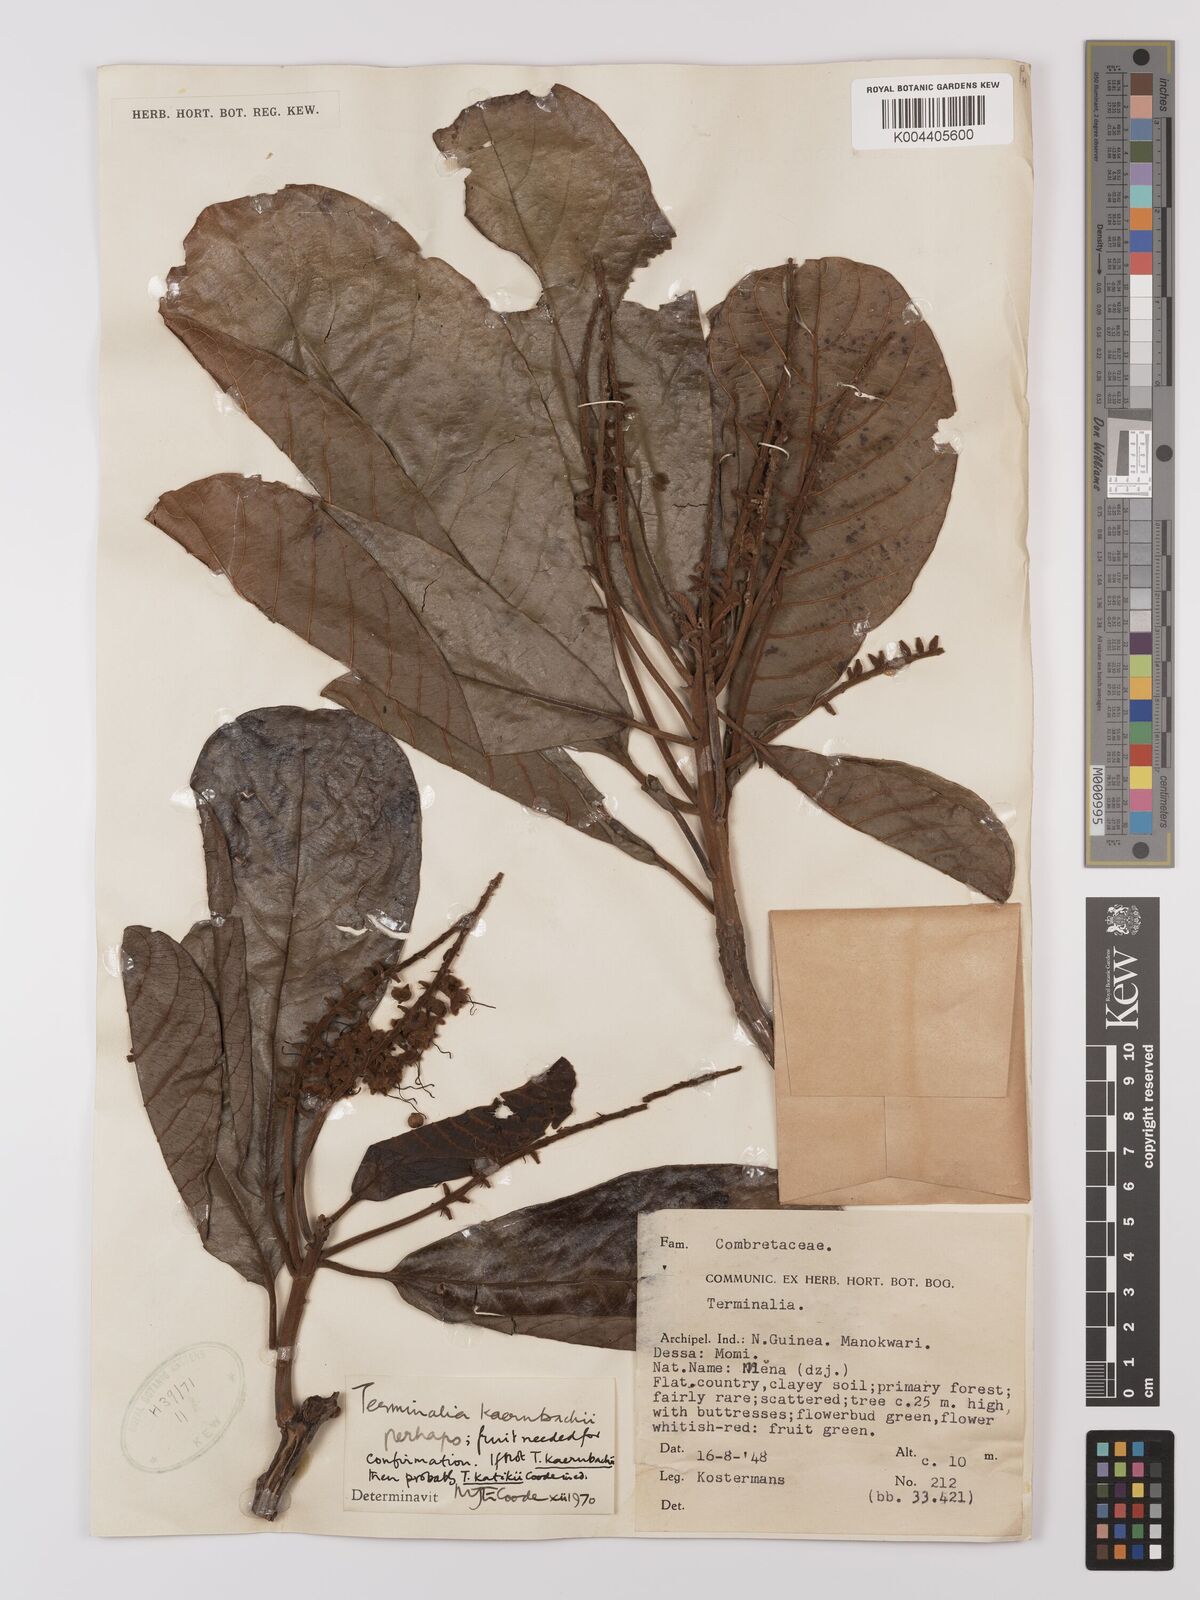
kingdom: Plantae
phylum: Tracheophyta
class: Magnoliopsida
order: Myrtales
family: Combretaceae
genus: Terminalia
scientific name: Terminalia kaernbachii
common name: Okari-nut
